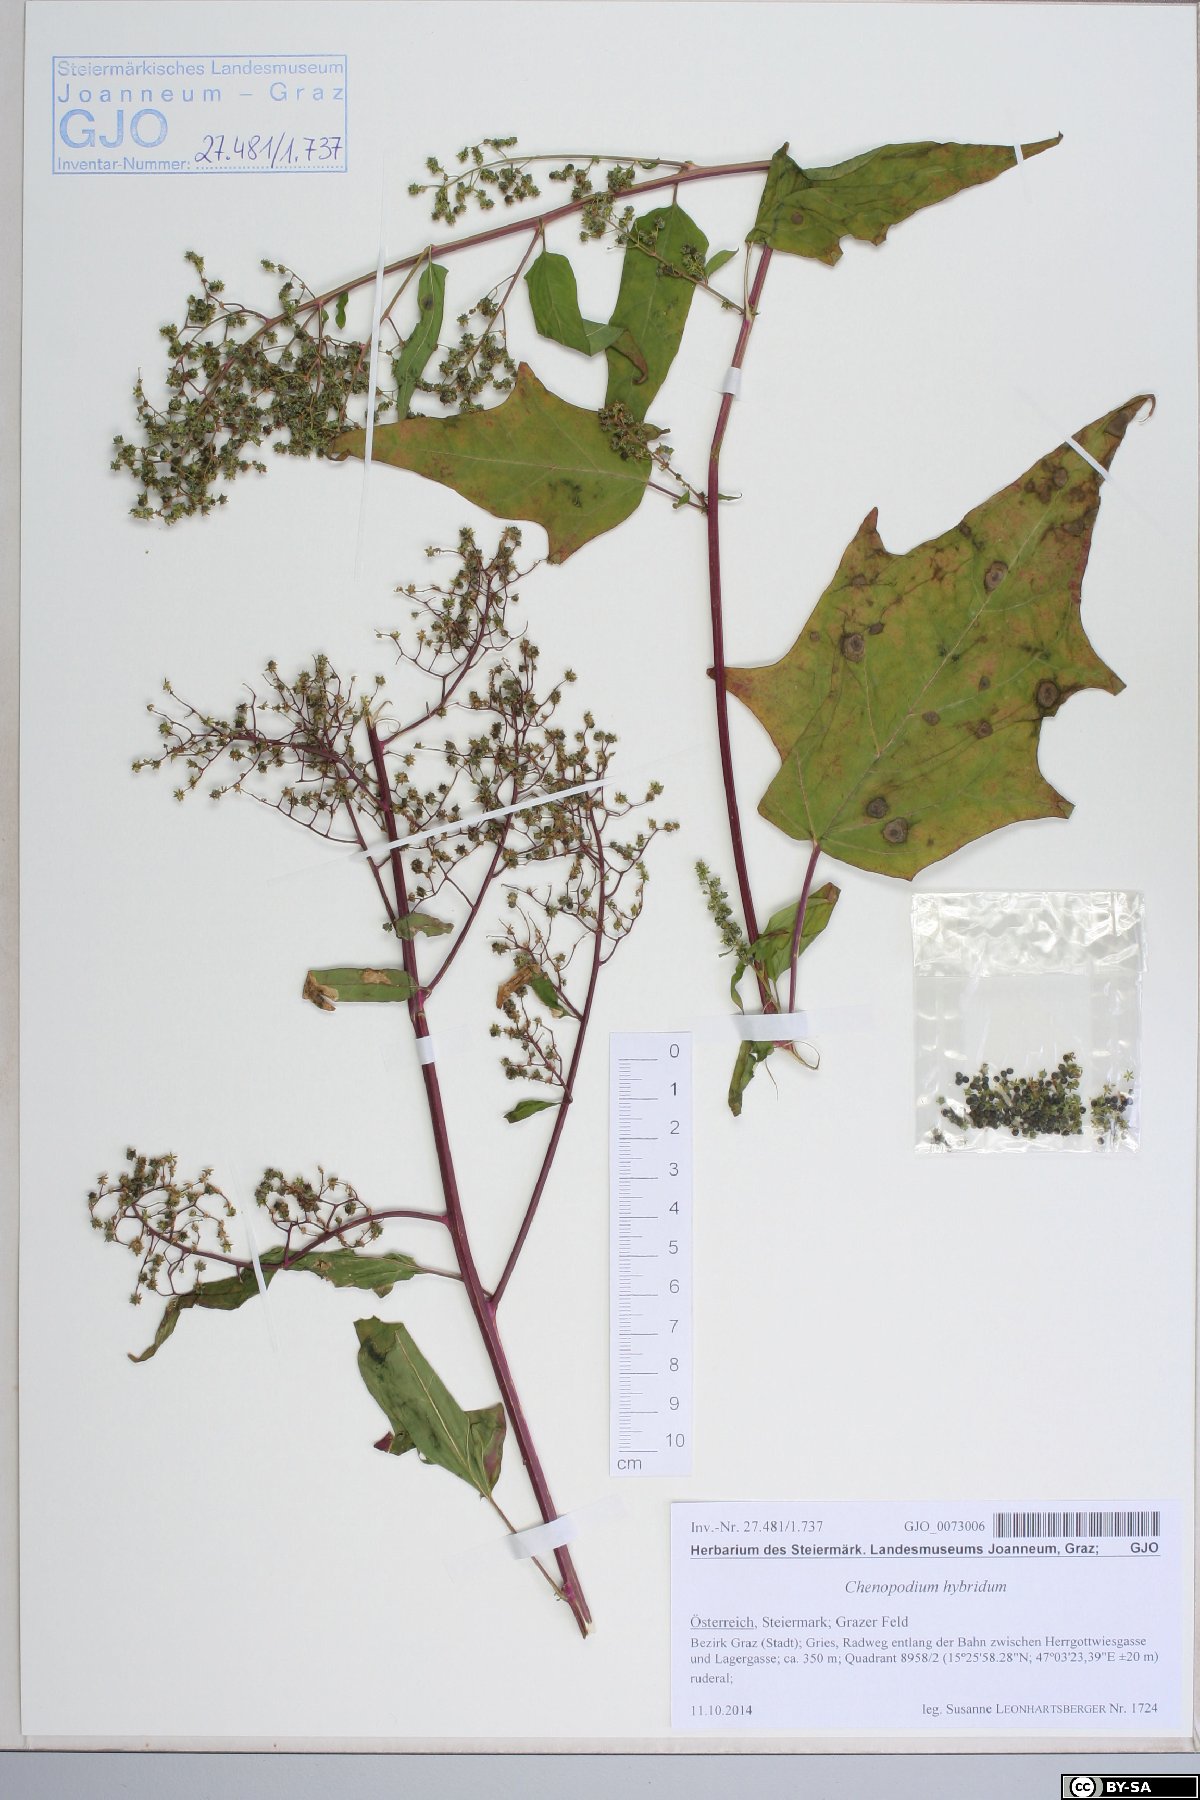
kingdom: Plantae
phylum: Tracheophyta
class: Magnoliopsida
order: Caryophyllales
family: Amaranthaceae
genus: Chenopodiastrum
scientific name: Chenopodiastrum hybridum
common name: Mapleleaf goosefoot
